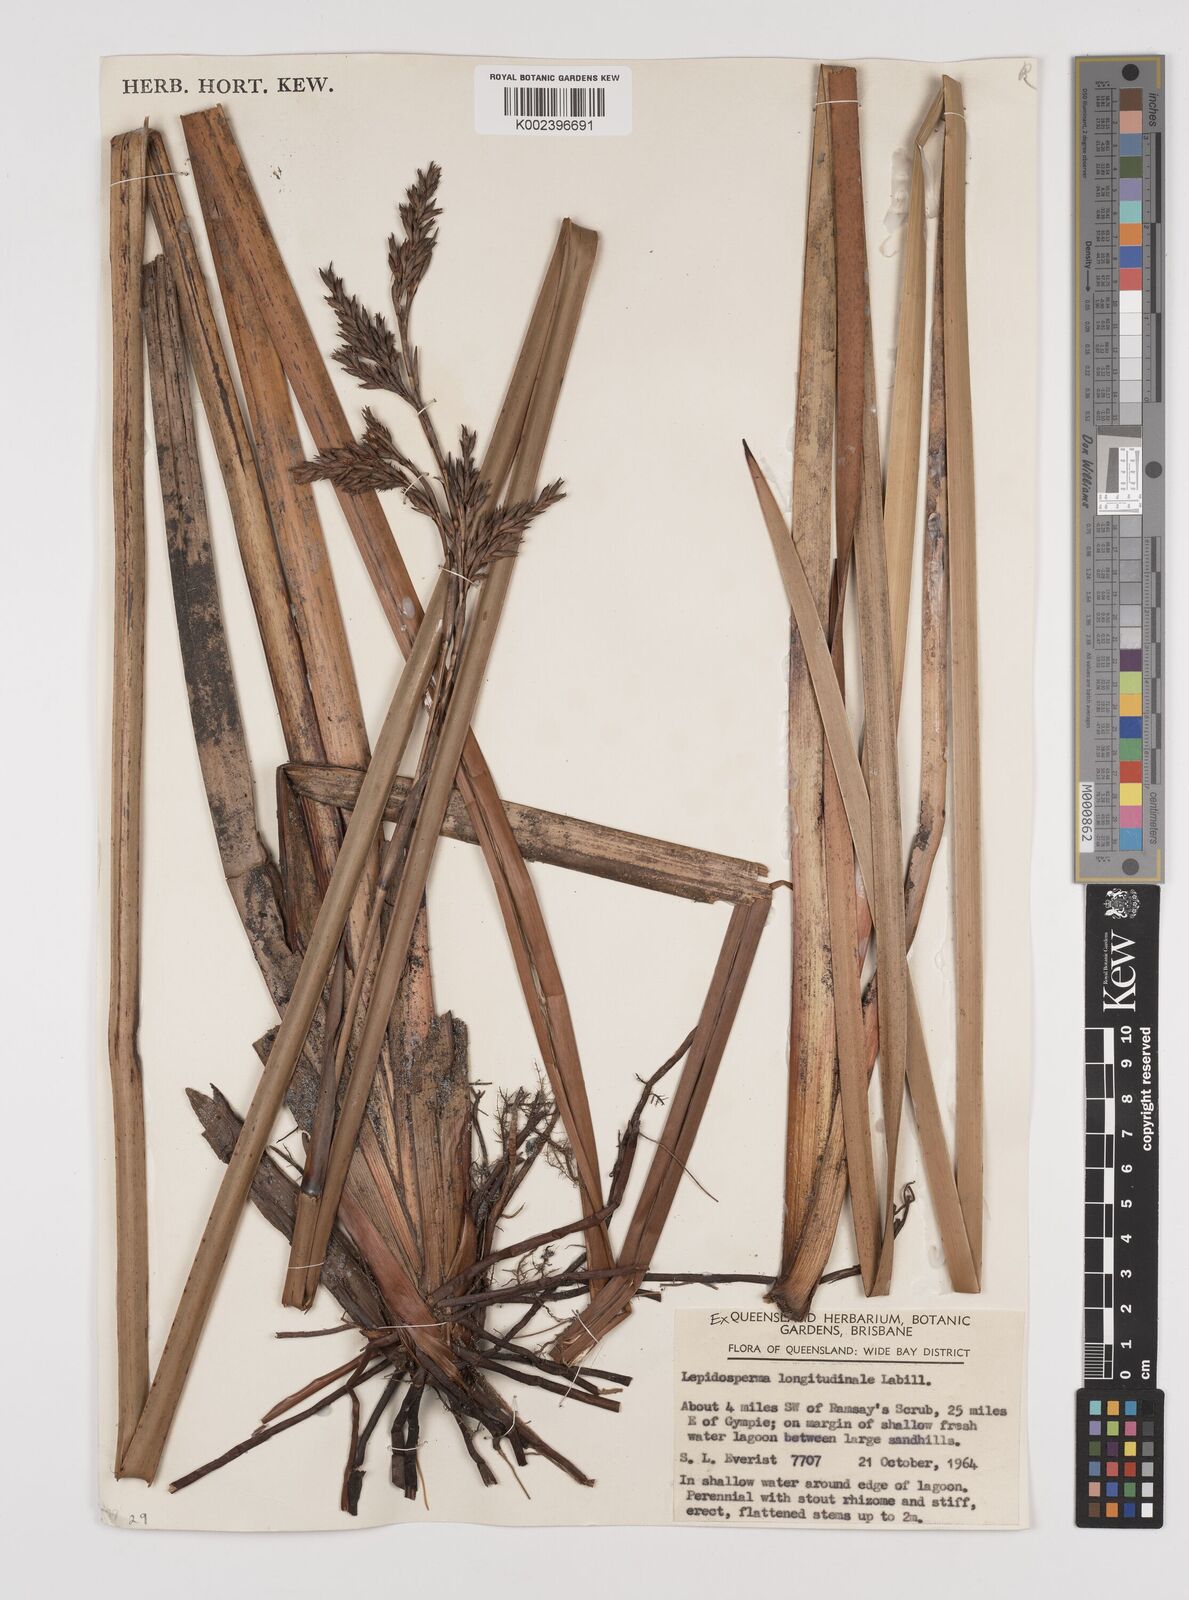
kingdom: Plantae
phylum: Tracheophyta
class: Liliopsida
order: Poales
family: Cyperaceae
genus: Lepidosperma
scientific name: Lepidosperma longitudinale
